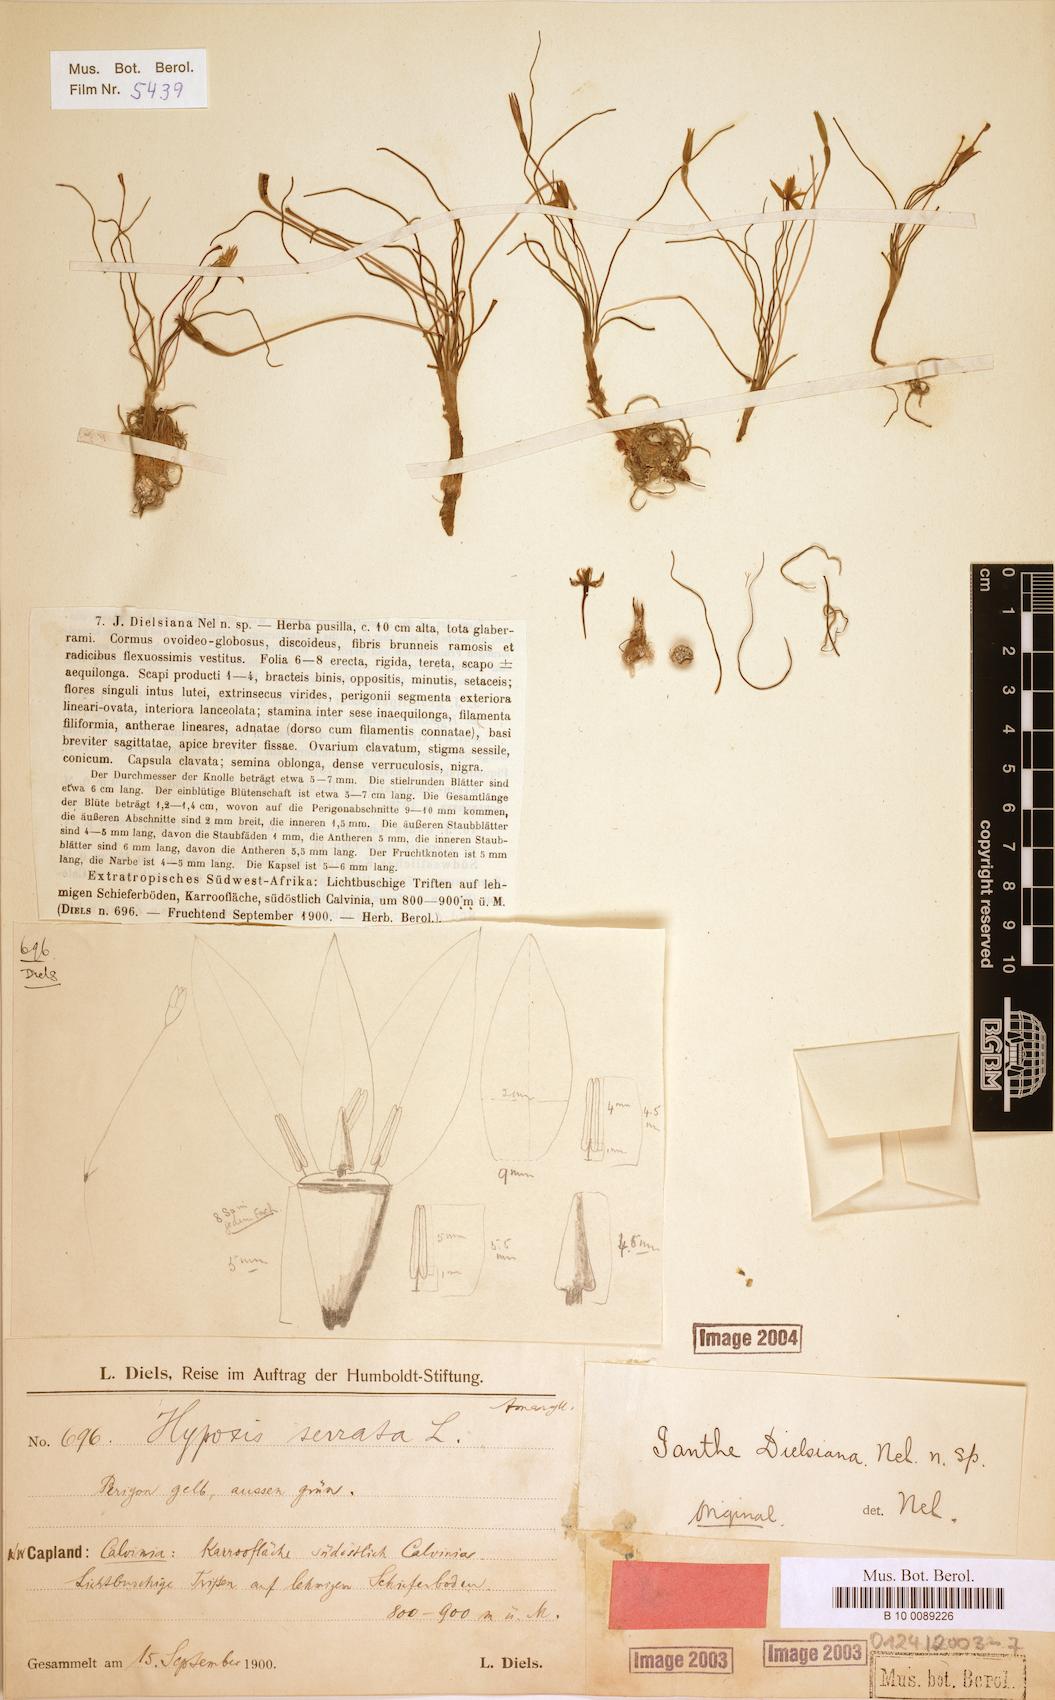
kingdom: Plantae
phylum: Tracheophyta
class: Liliopsida
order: Asparagales
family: Hypoxidaceae
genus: Pauridia
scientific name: Pauridia serrata
